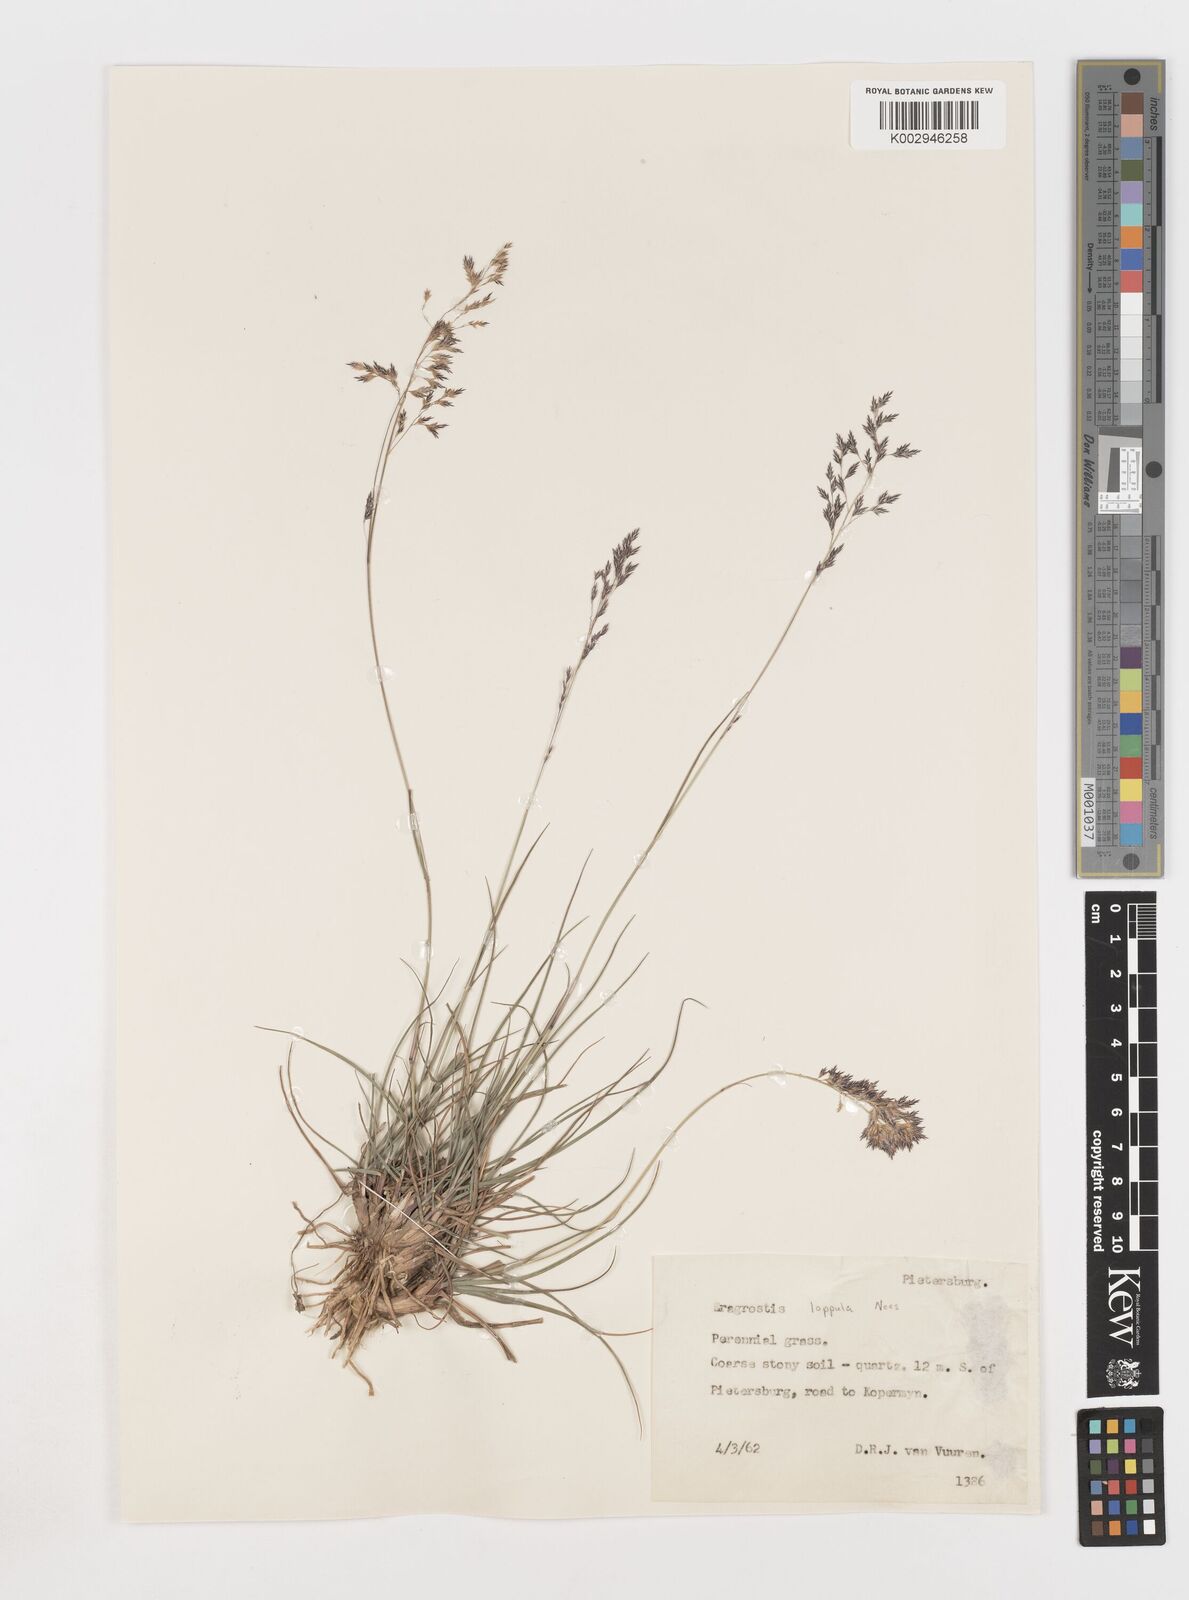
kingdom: Plantae
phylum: Tracheophyta
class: Liliopsida
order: Poales
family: Poaceae
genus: Eragrostis
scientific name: Eragrostis lappula
